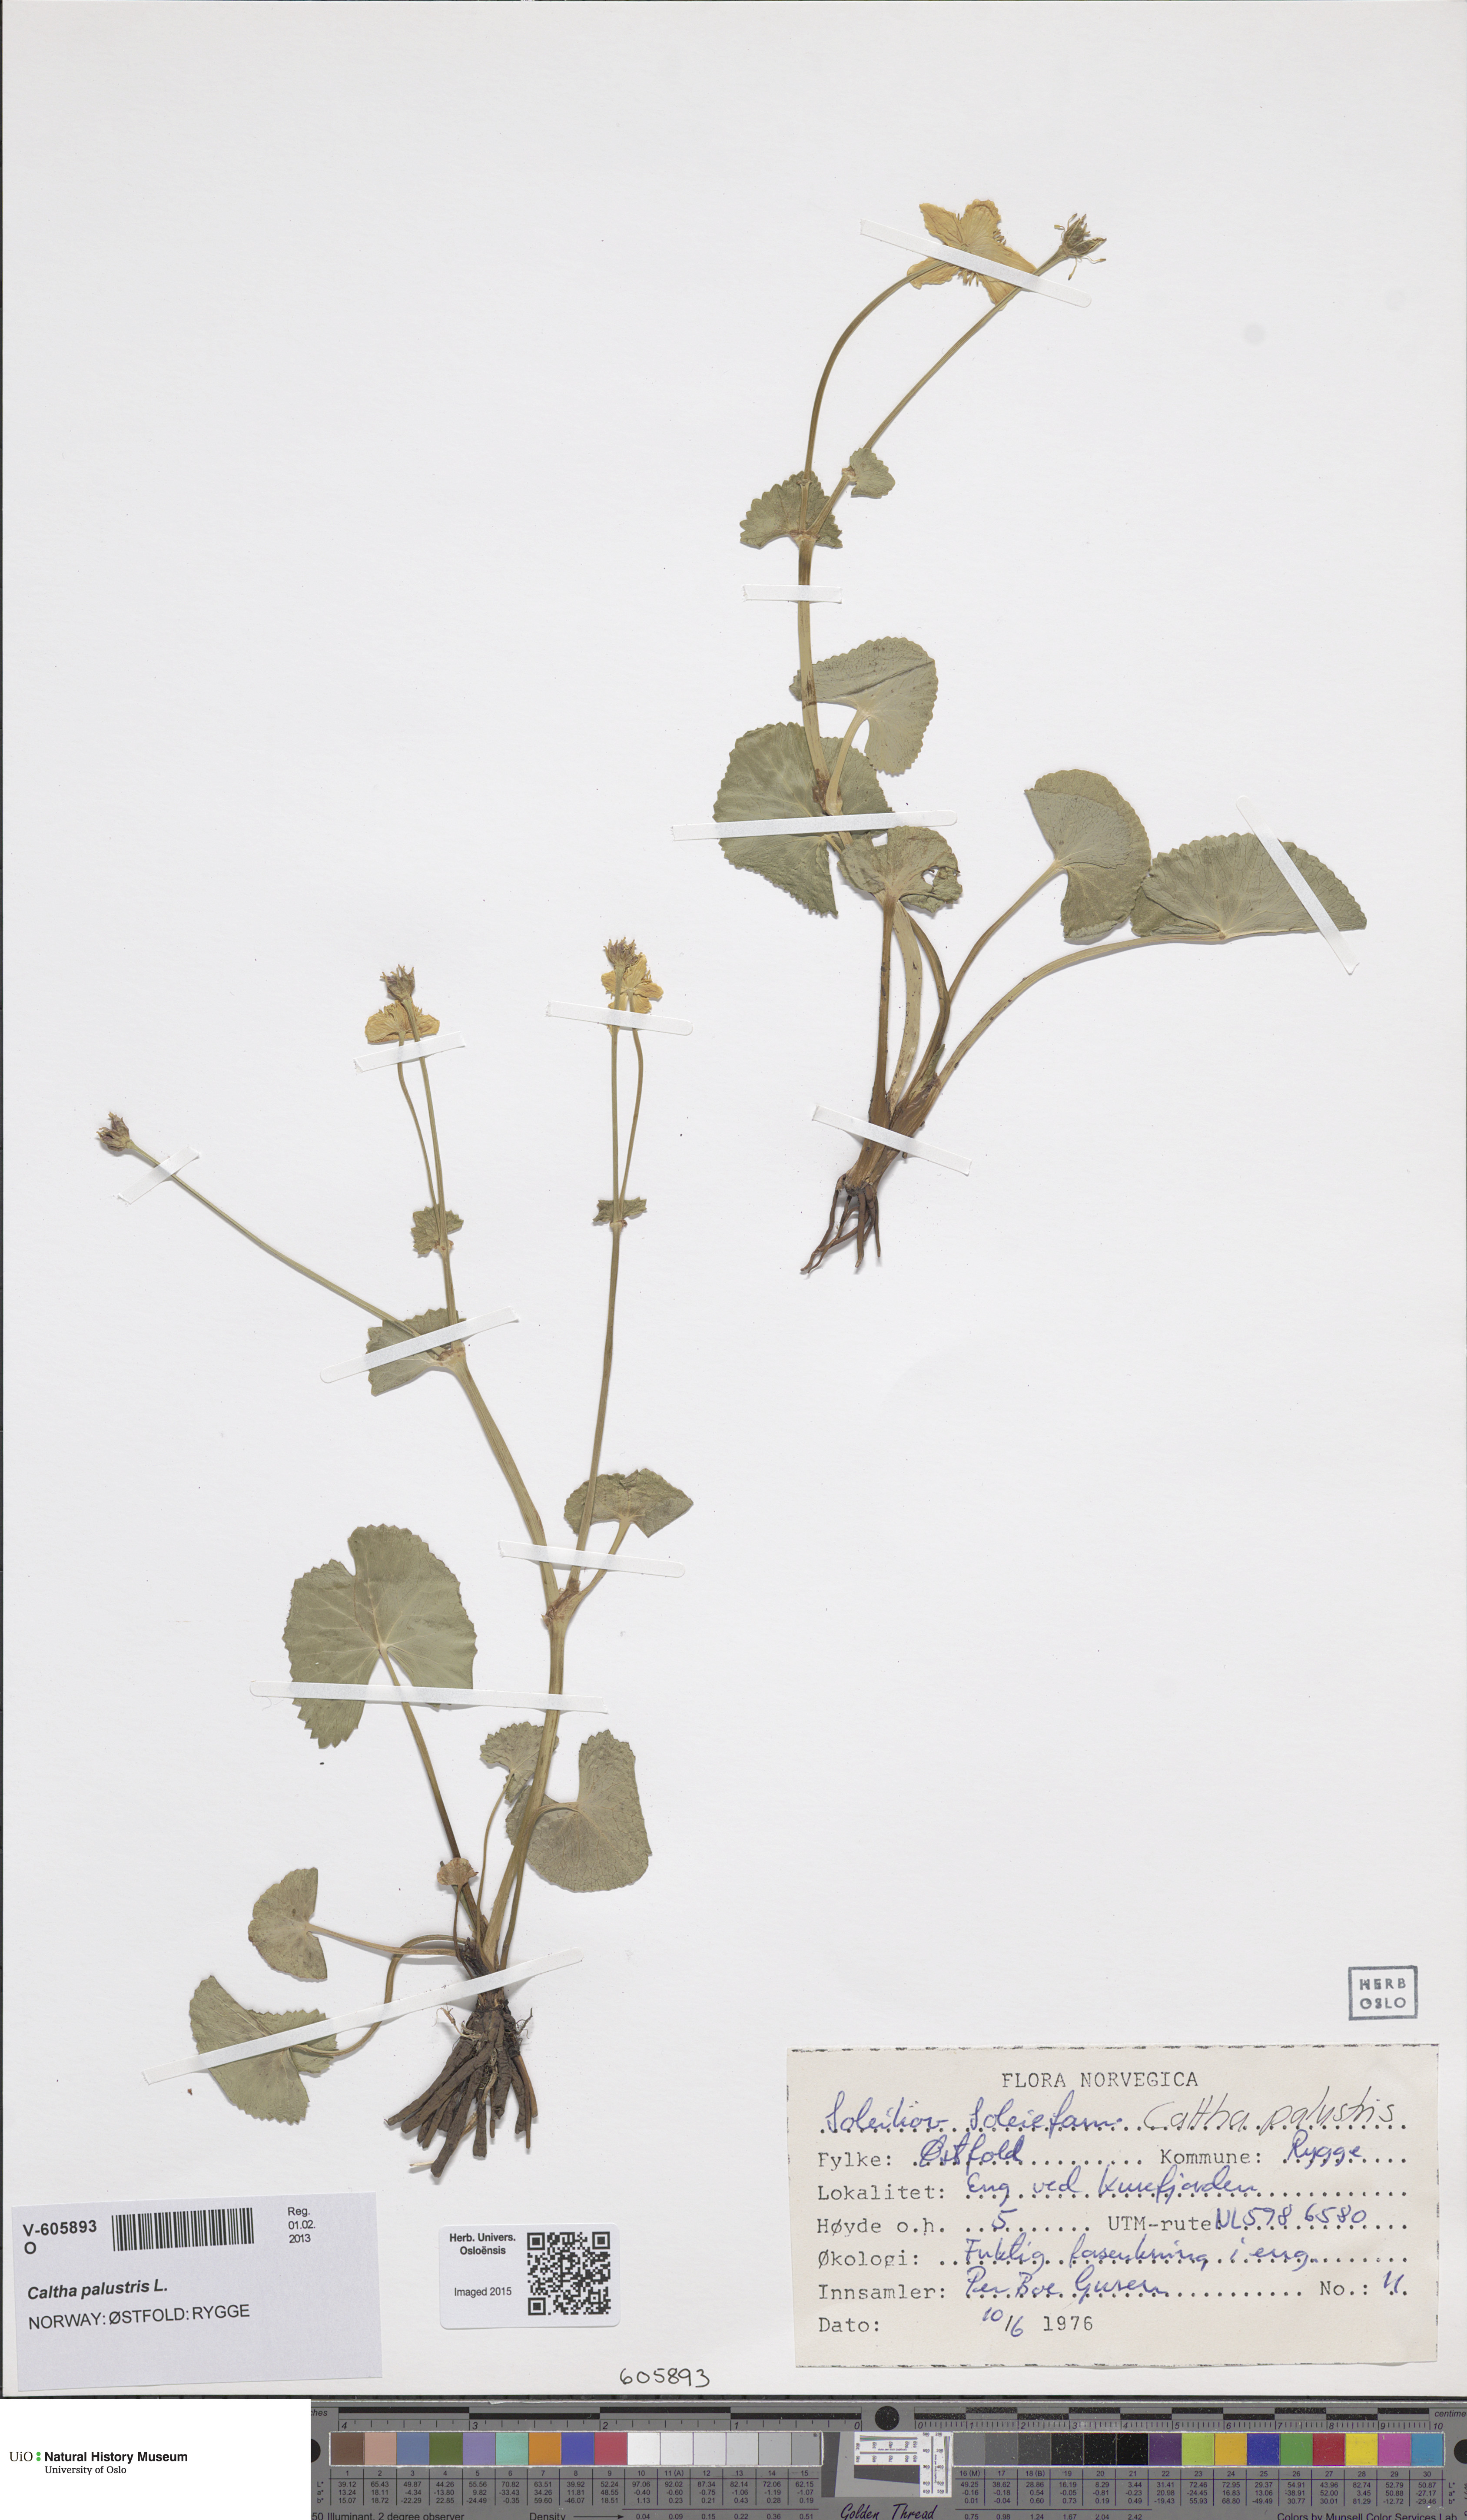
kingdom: Plantae
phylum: Tracheophyta
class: Magnoliopsida
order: Ranunculales
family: Ranunculaceae
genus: Caltha
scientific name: Caltha palustris
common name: Marsh marigold
